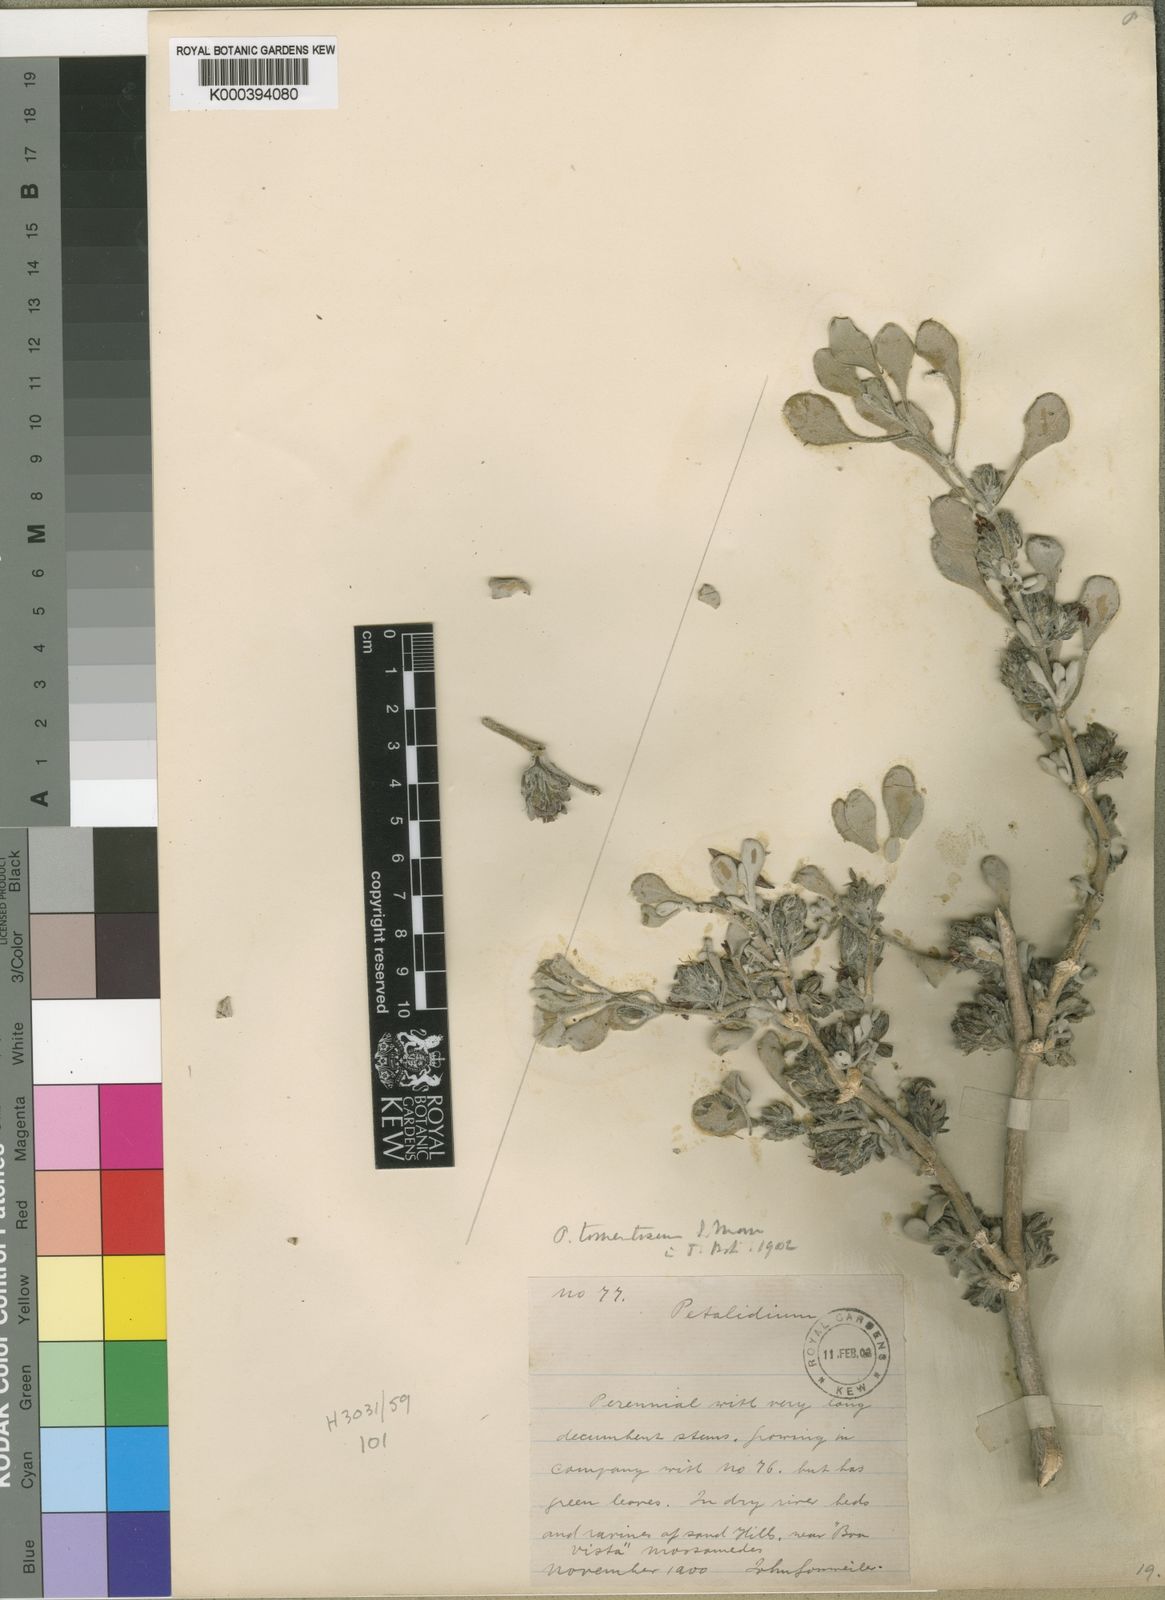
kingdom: Plantae
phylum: Tracheophyta
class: Magnoliopsida
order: Lamiales
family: Acanthaceae
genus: Petalidium
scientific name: Petalidium tomentosum
